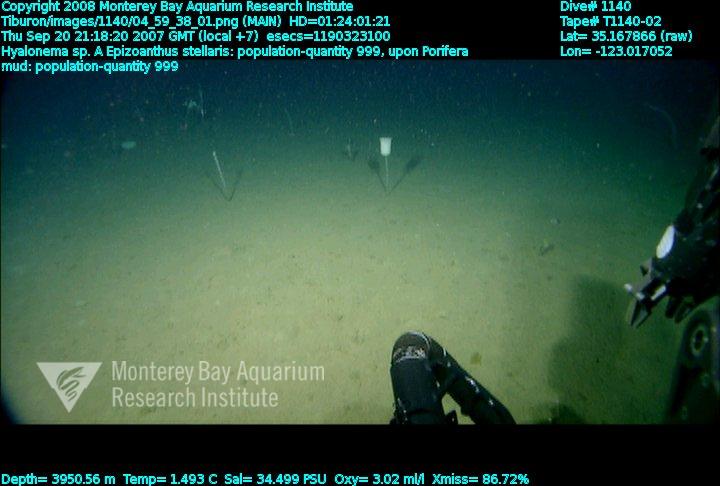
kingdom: Animalia
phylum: Porifera
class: Hexactinellida
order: Amphidiscosida
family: Hyalonematidae
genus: Hyalonema
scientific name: Hyalonema
